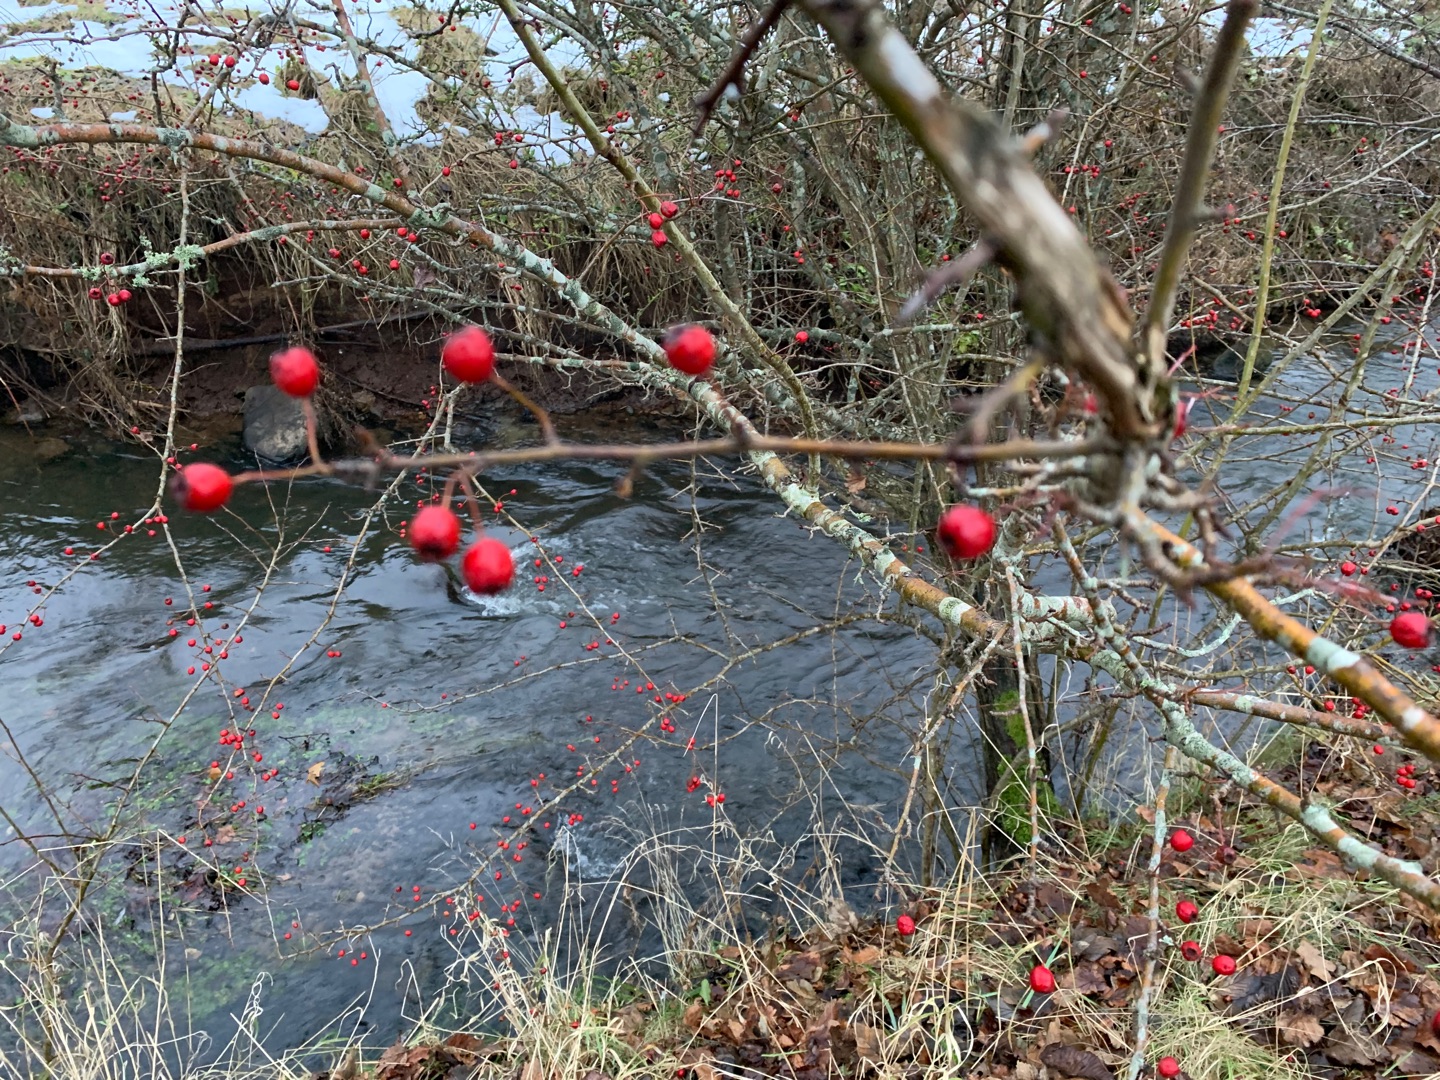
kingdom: Plantae
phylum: Tracheophyta
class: Magnoliopsida
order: Rosales
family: Rosaceae
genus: Crataegus
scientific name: Crataegus monogyna
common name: Engriflet hvidtjørn
